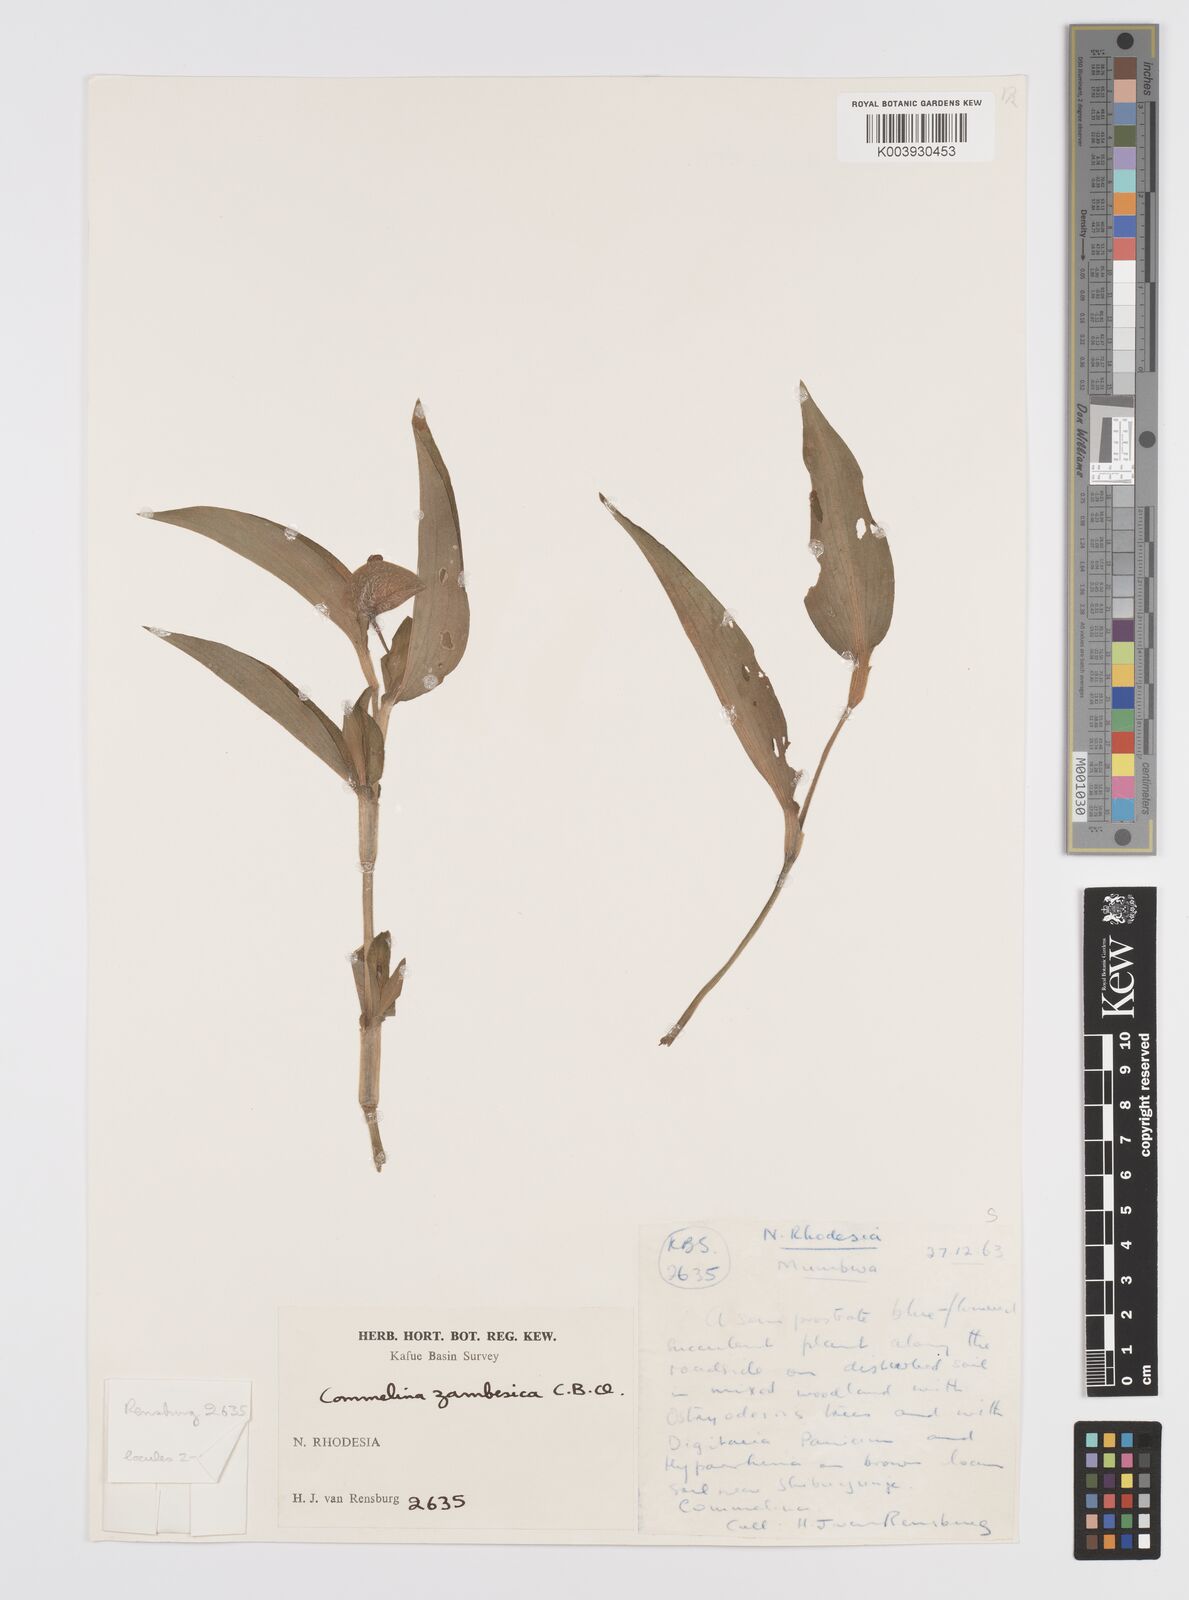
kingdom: Plantae
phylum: Tracheophyta
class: Liliopsida
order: Commelinales
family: Commelinaceae
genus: Commelina
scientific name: Commelina zambesica
